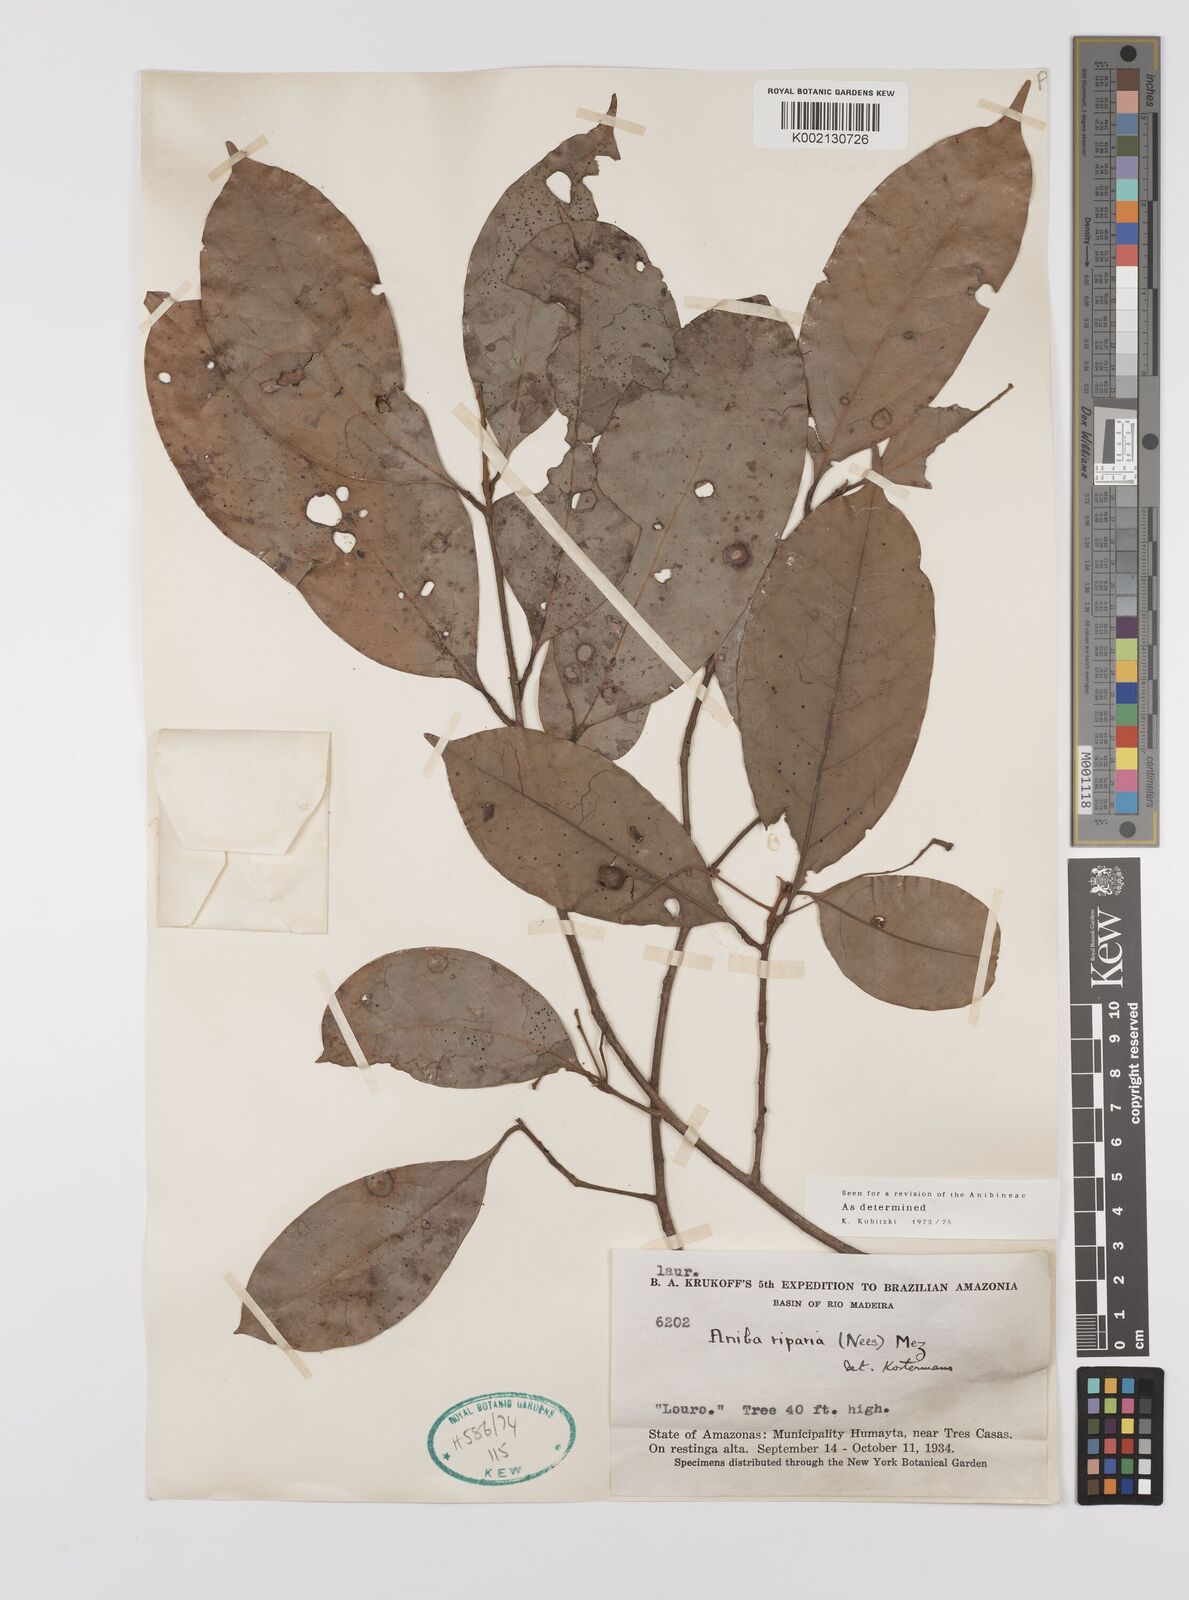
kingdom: Plantae
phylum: Tracheophyta
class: Magnoliopsida
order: Laurales
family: Lauraceae
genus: Aniba
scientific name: Aniba riparia
